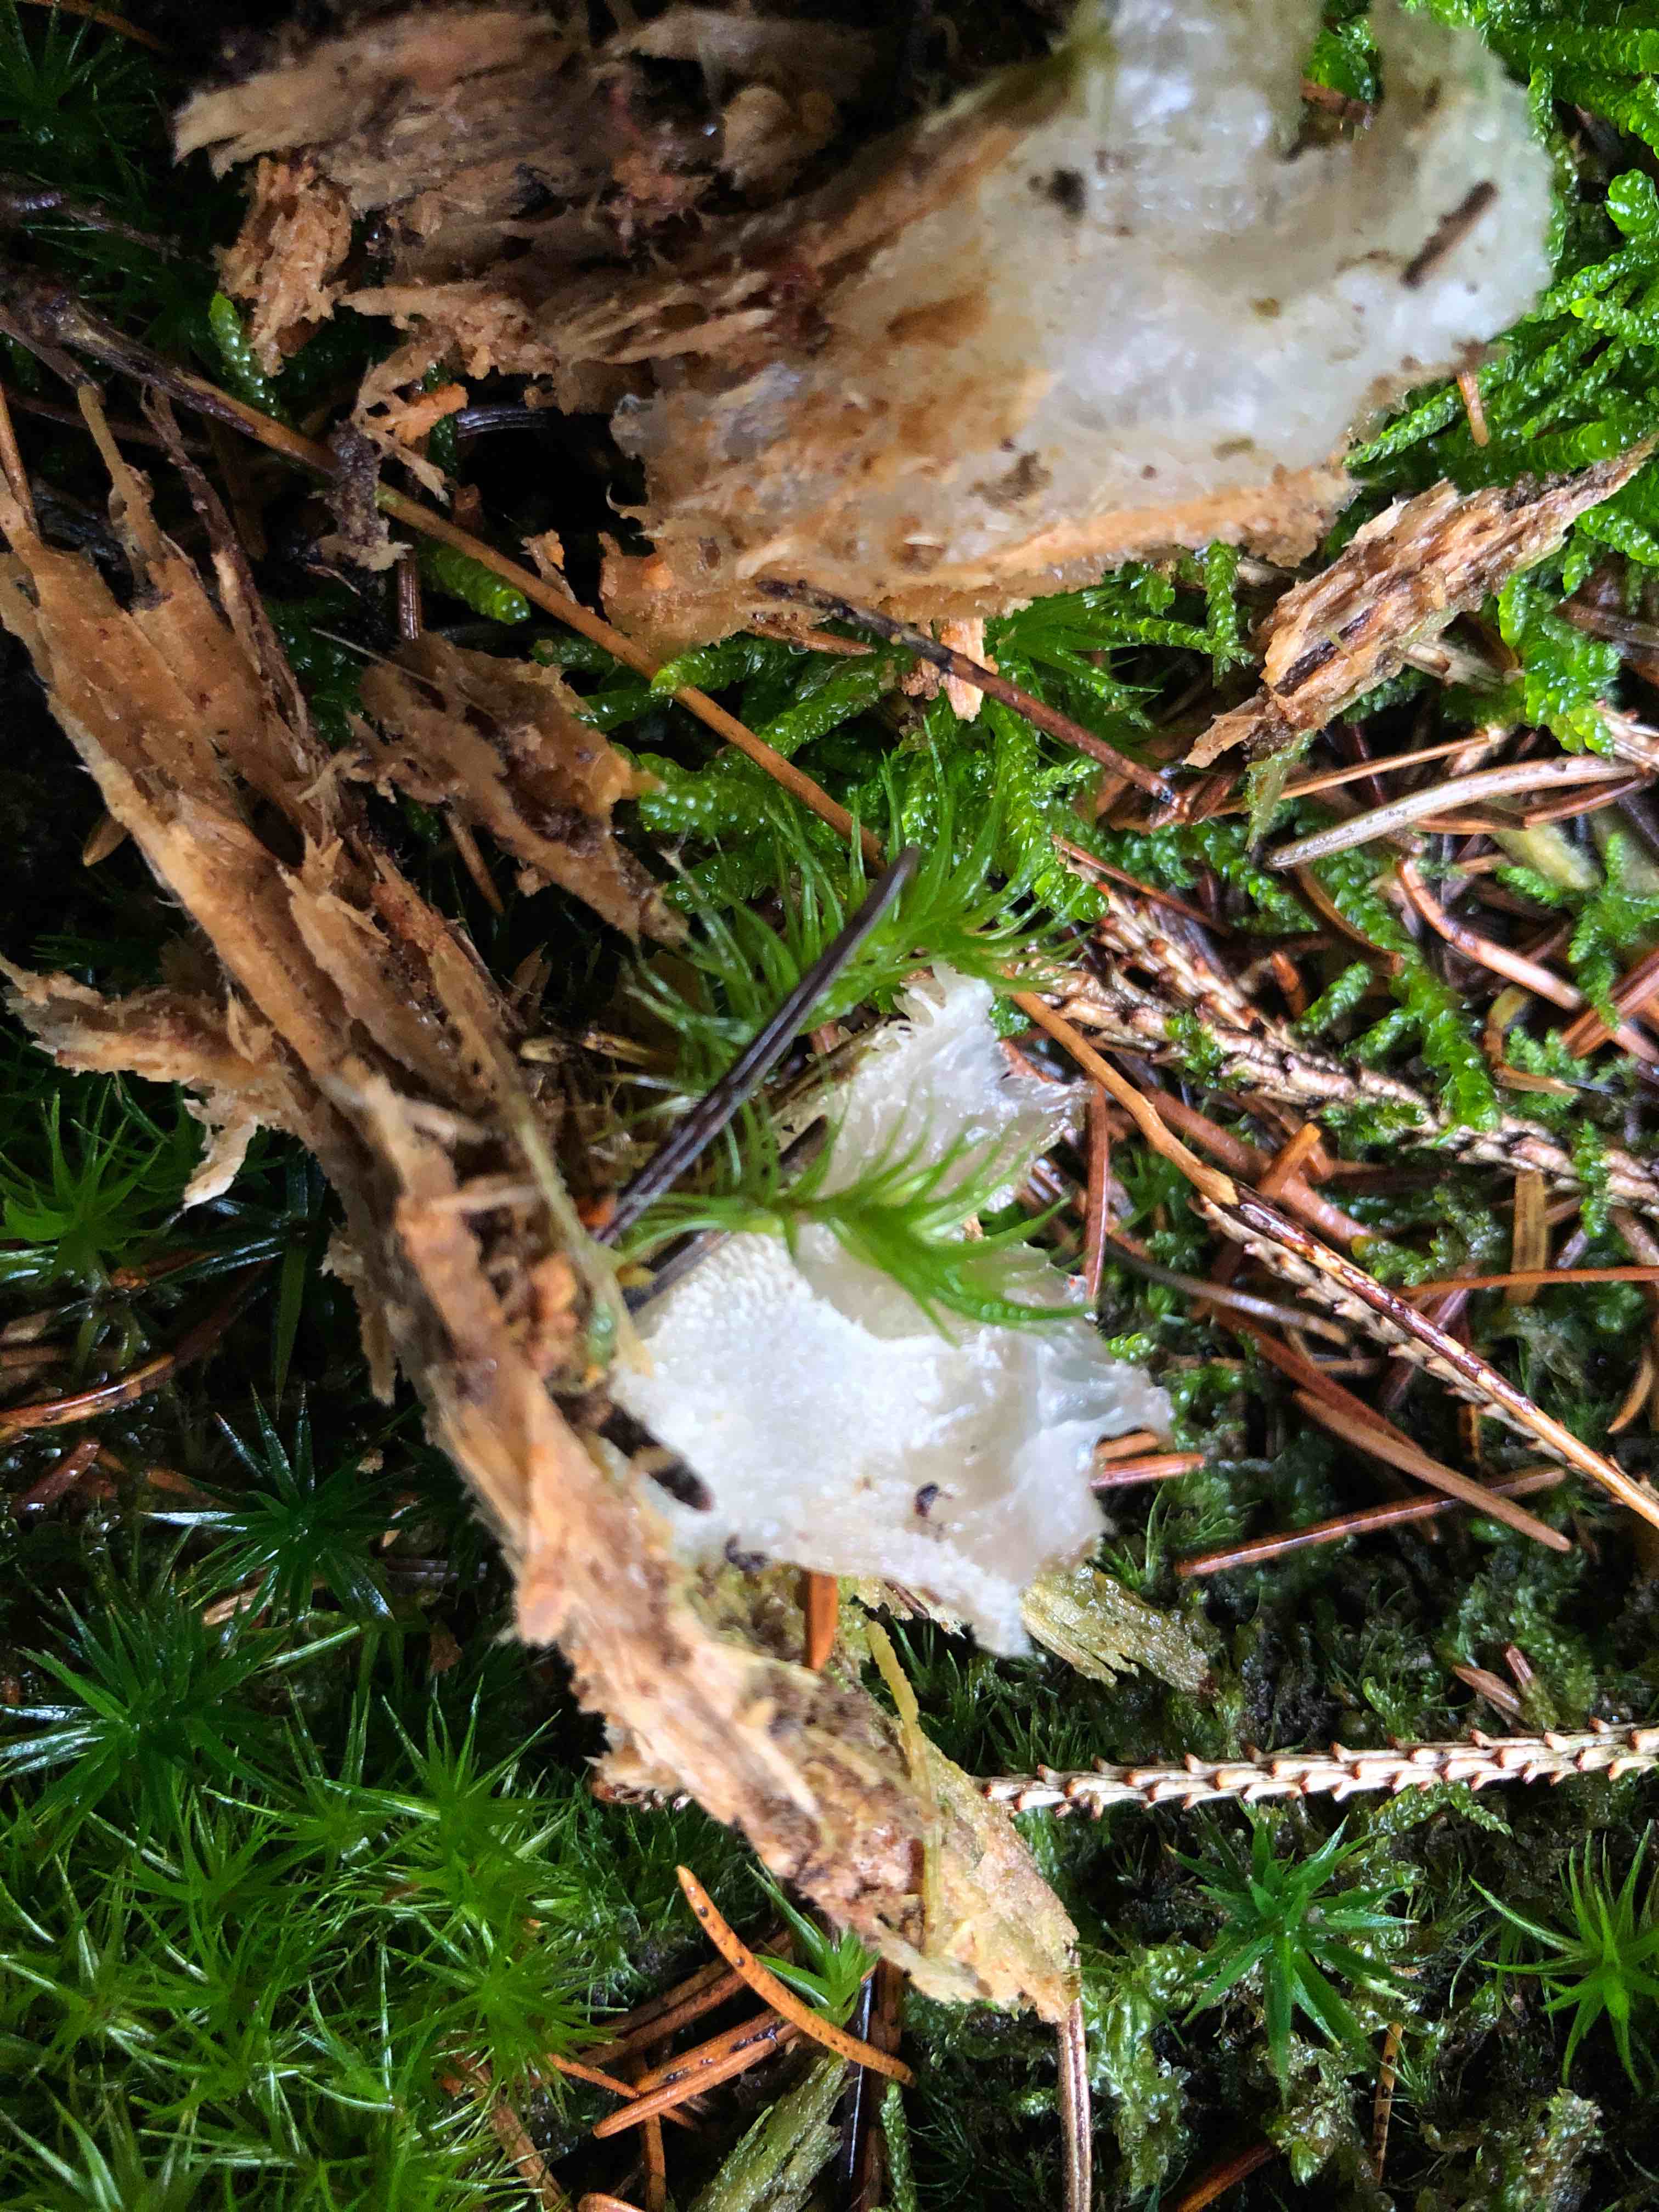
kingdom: Fungi
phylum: Basidiomycota
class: Agaricomycetes
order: Auriculariales
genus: Pseudohydnum
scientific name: Pseudohydnum gelatinosum
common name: bævretand
